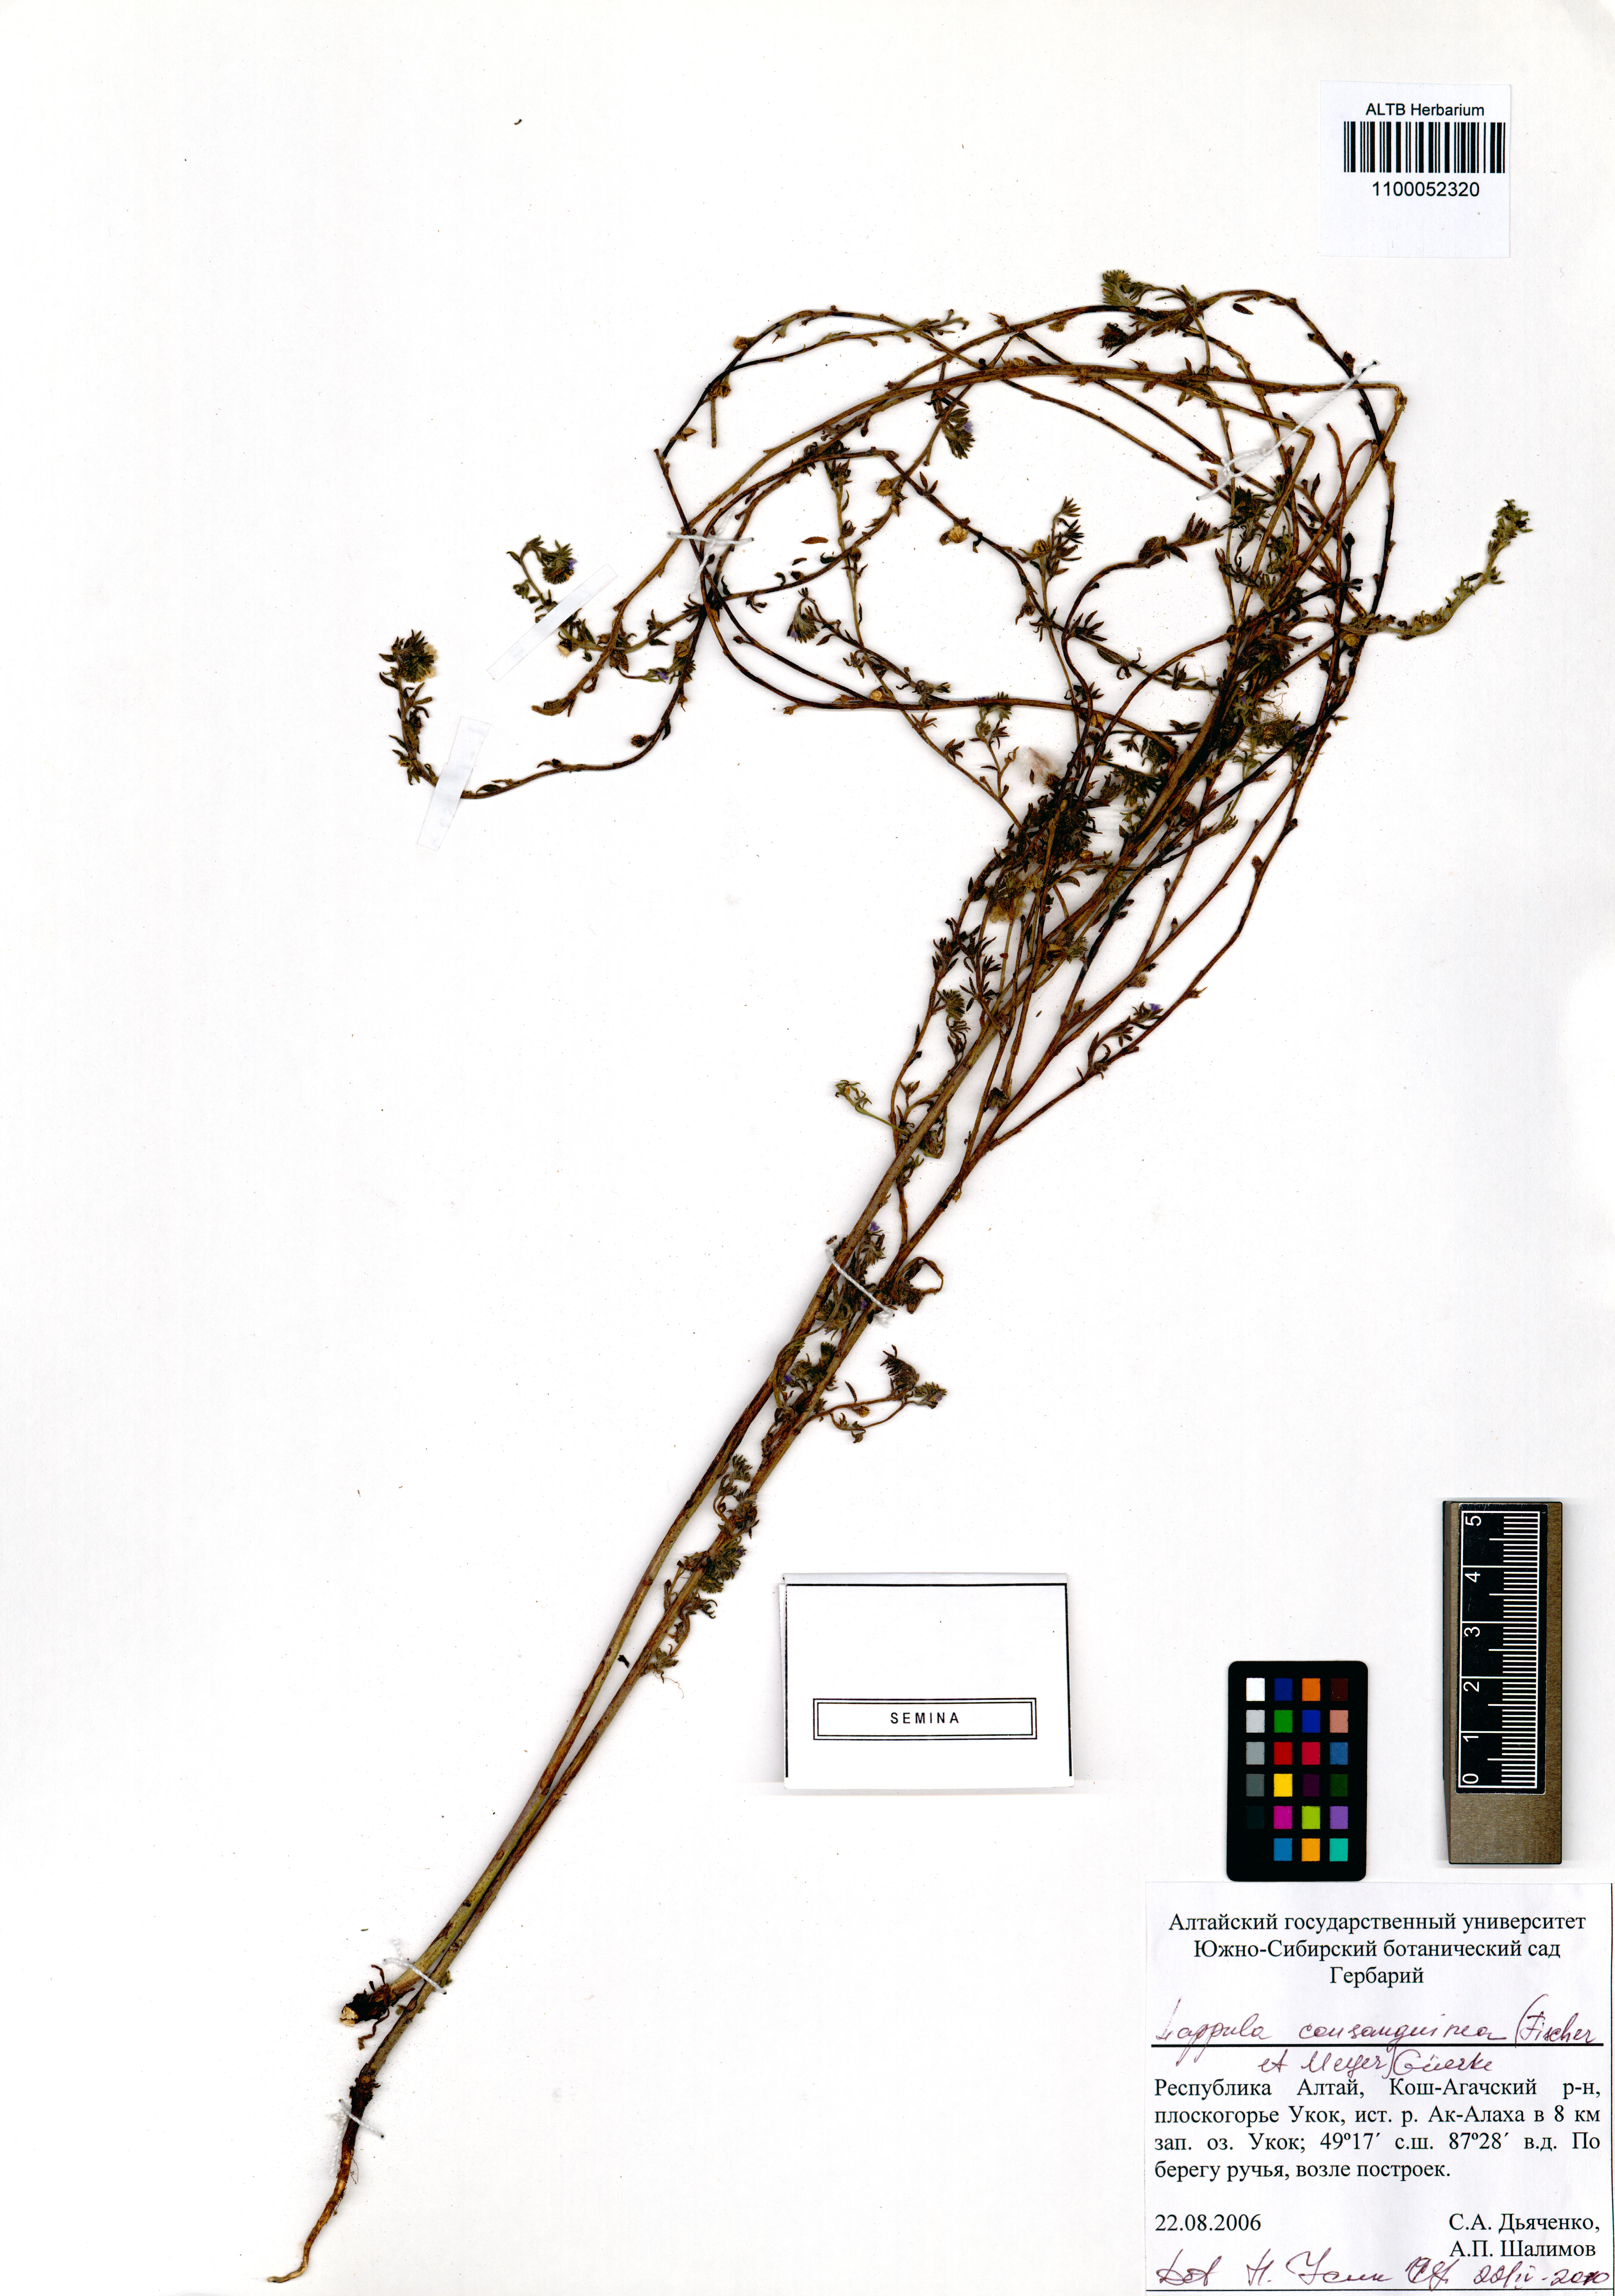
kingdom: Plantae
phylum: Tracheophyta
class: Magnoliopsida
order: Boraginales
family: Boraginaceae
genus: Lappula
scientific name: Lappula squarrosa
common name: European stickseed
